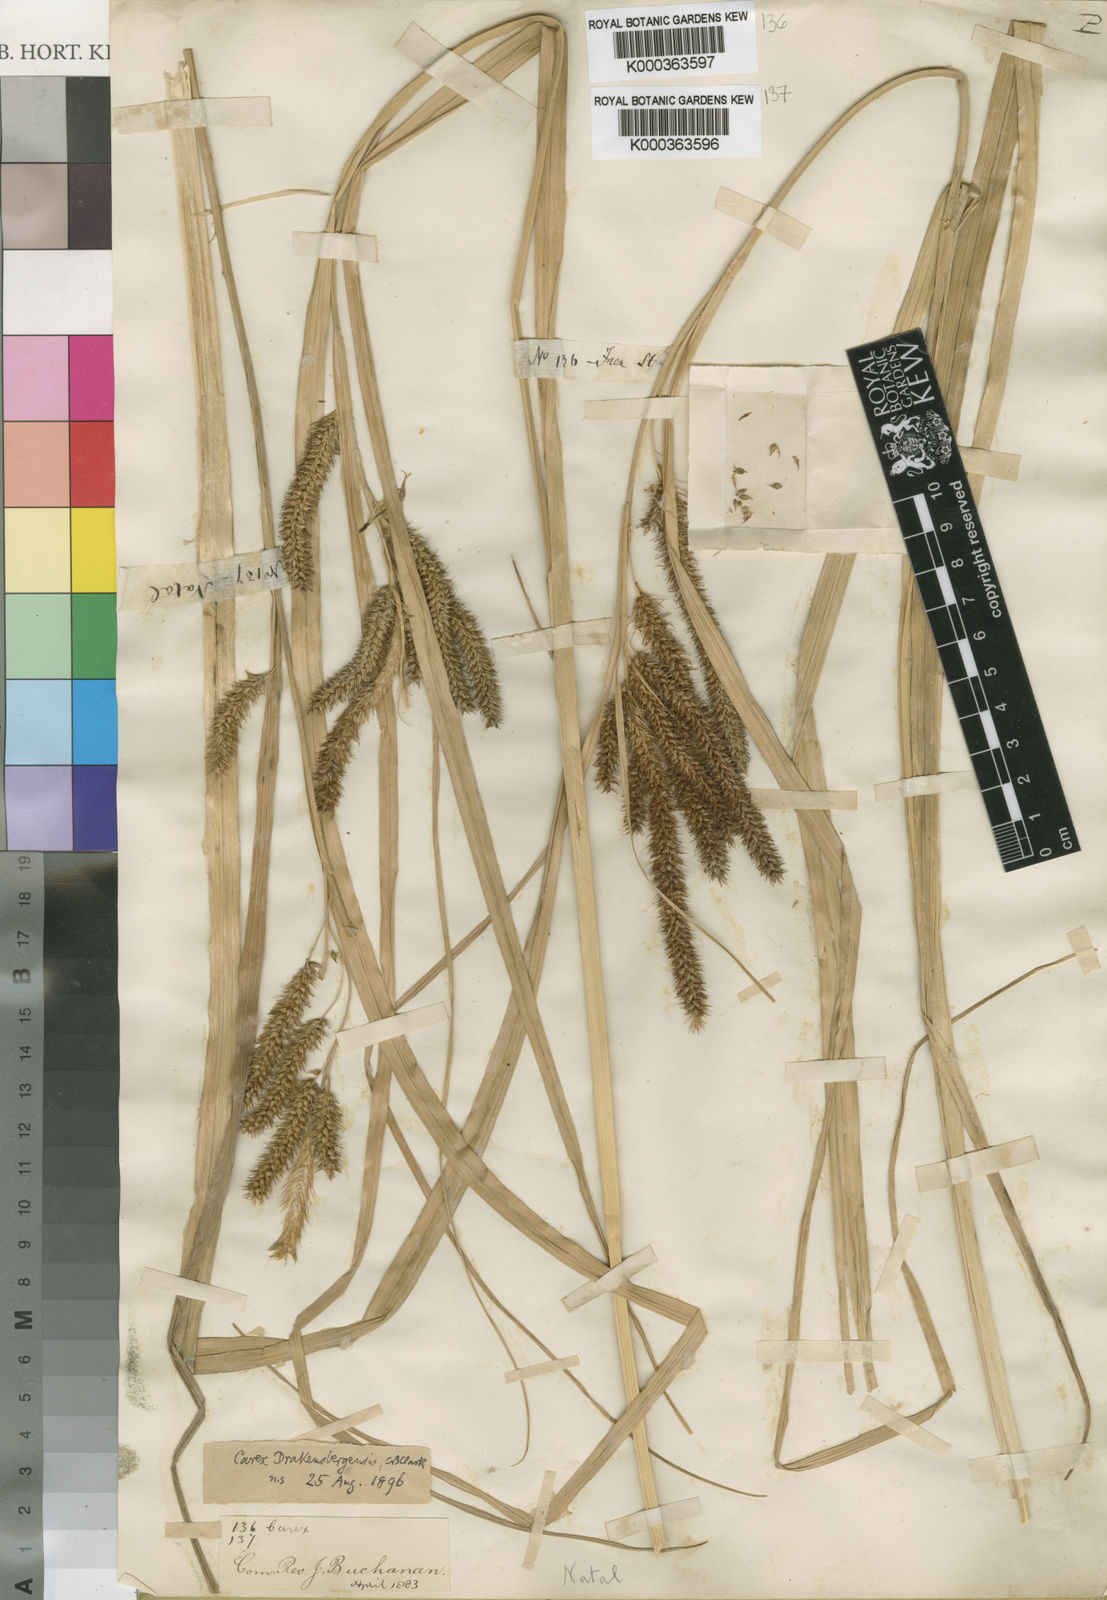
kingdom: Plantae
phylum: Tracheophyta
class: Liliopsida
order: Poales
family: Cyperaceae
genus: Carex
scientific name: Carex cognata
